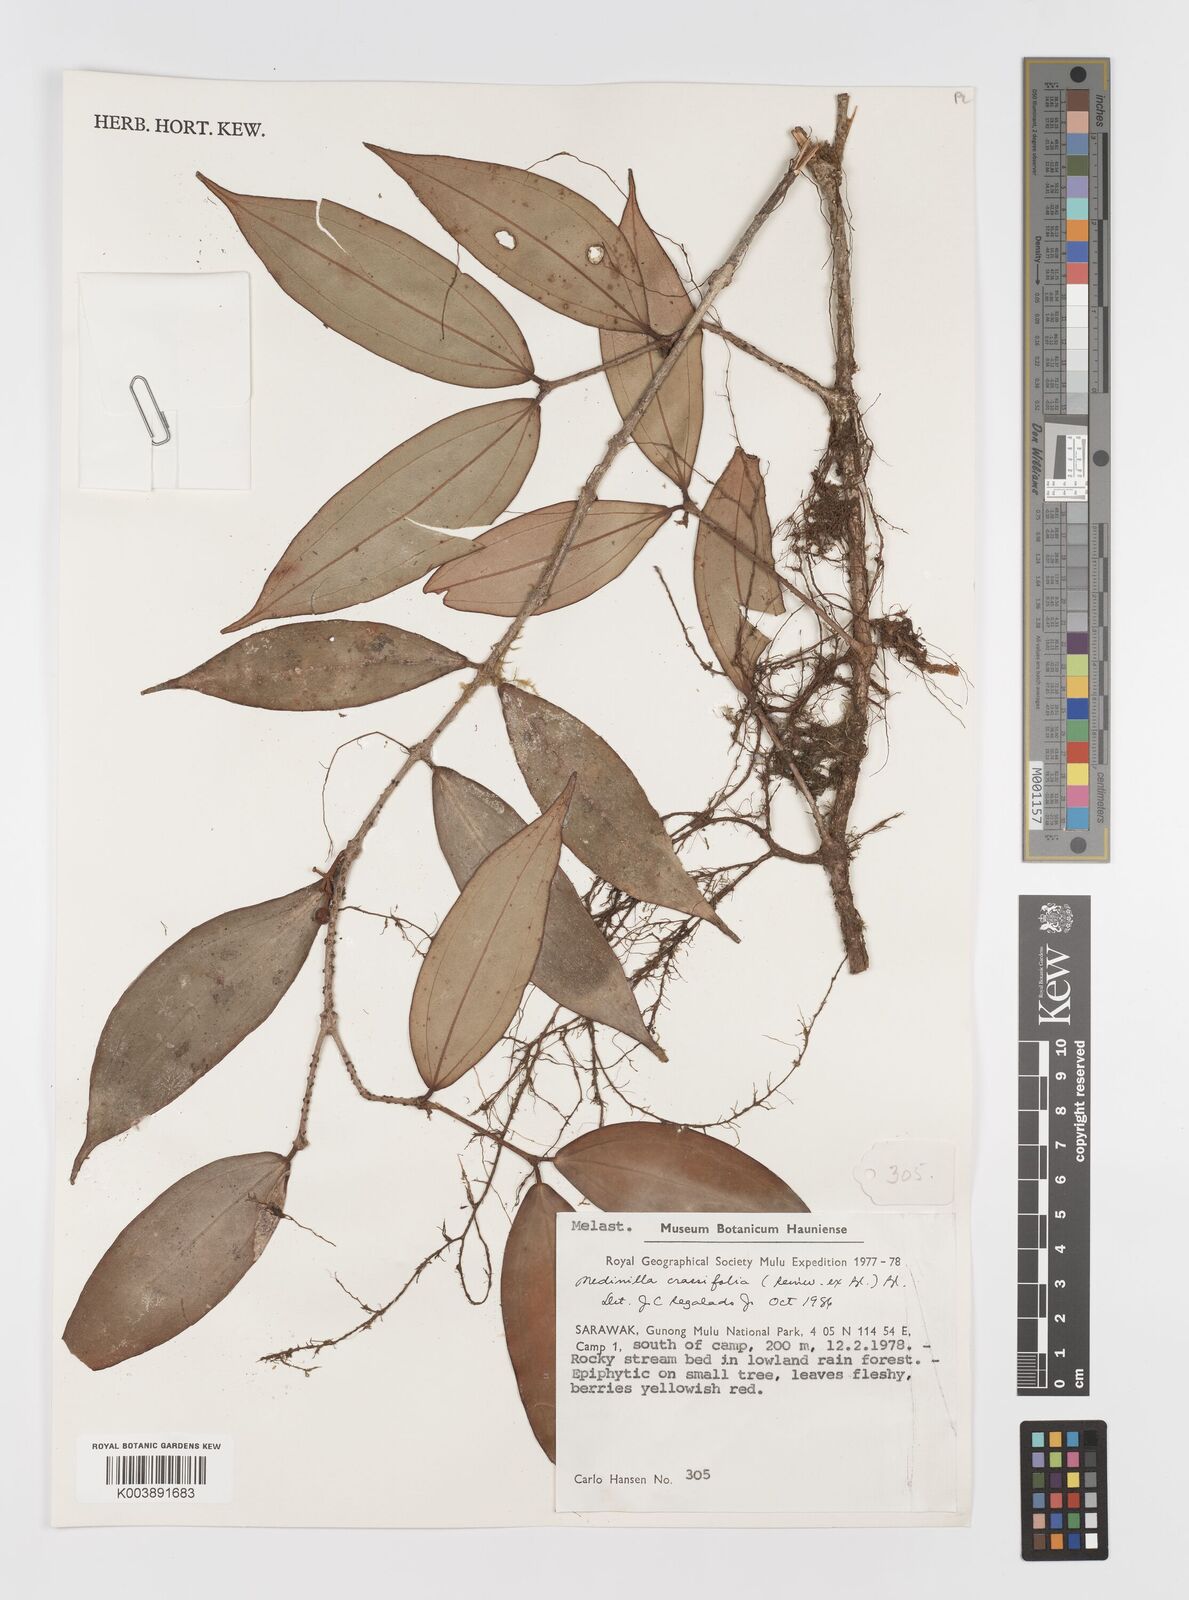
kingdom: Plantae
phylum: Tracheophyta
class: Magnoliopsida
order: Myrtales
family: Melastomataceae
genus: Medinilla
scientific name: Medinilla crassifolia
